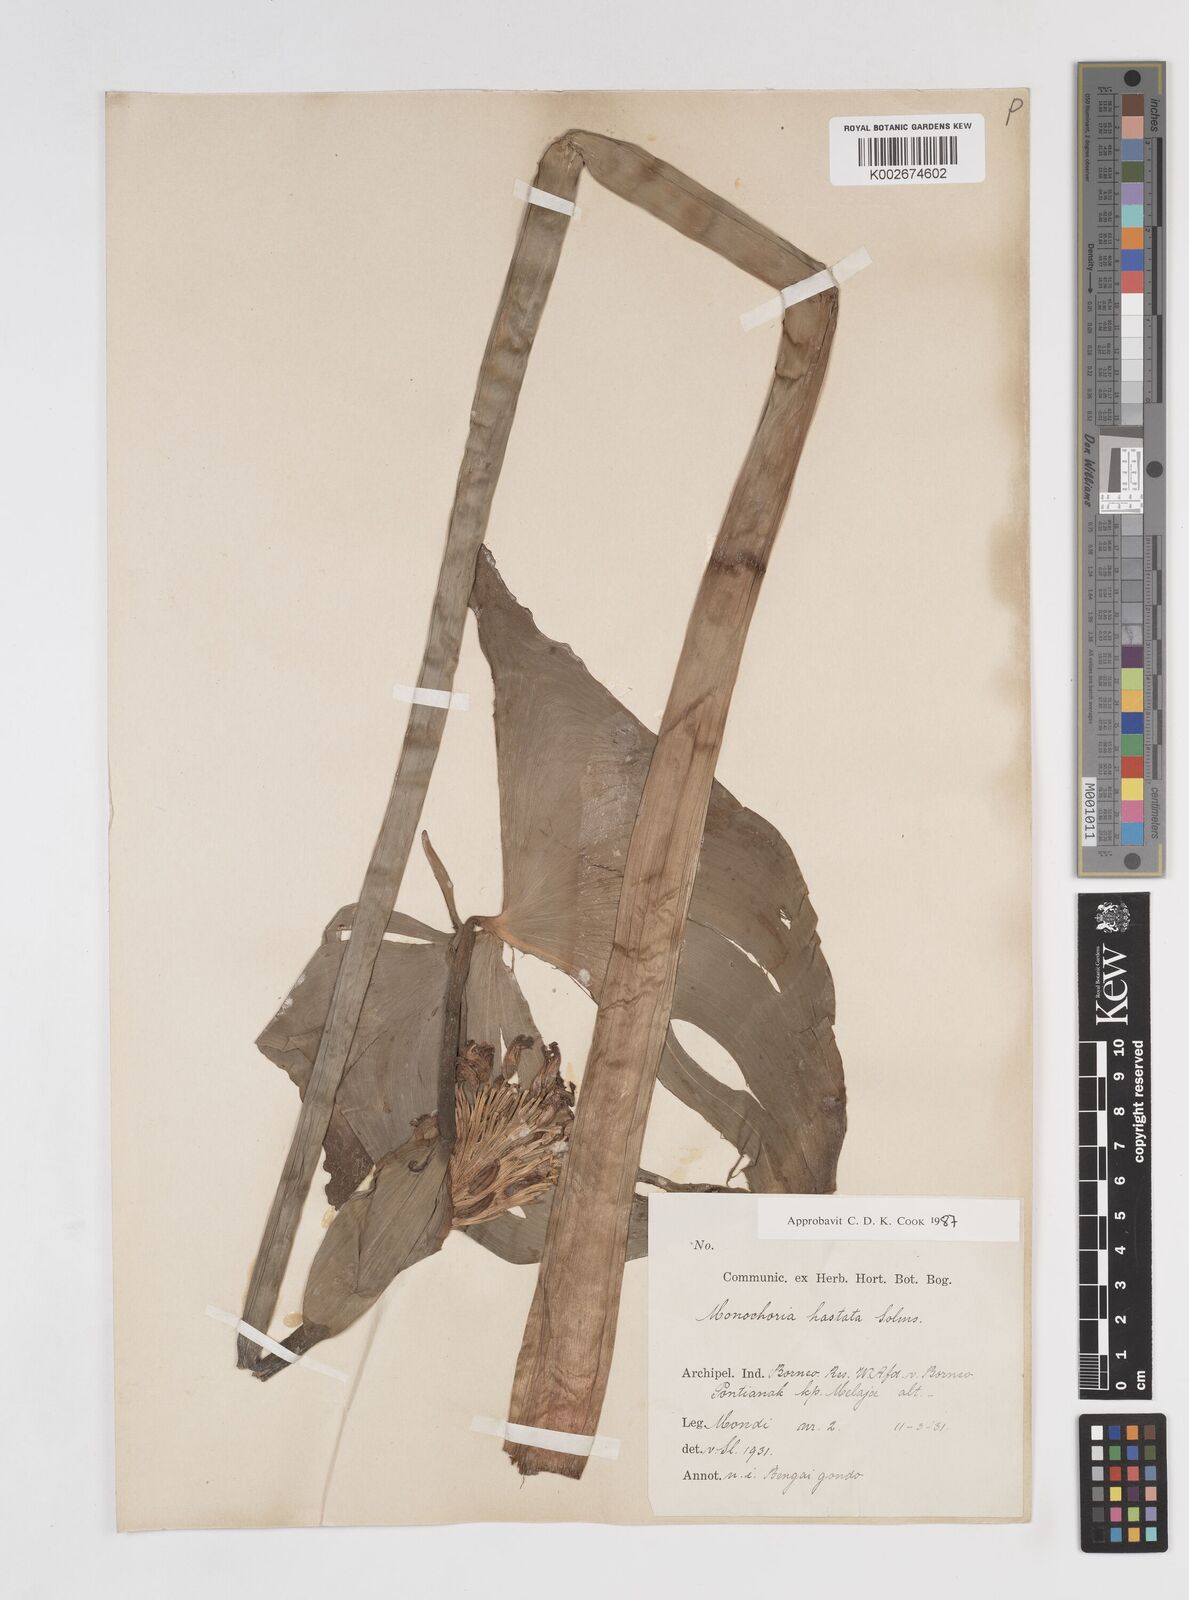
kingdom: Plantae
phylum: Tracheophyta
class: Liliopsida
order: Commelinales
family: Pontederiaceae
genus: Pontederia
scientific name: Pontederia hastata
